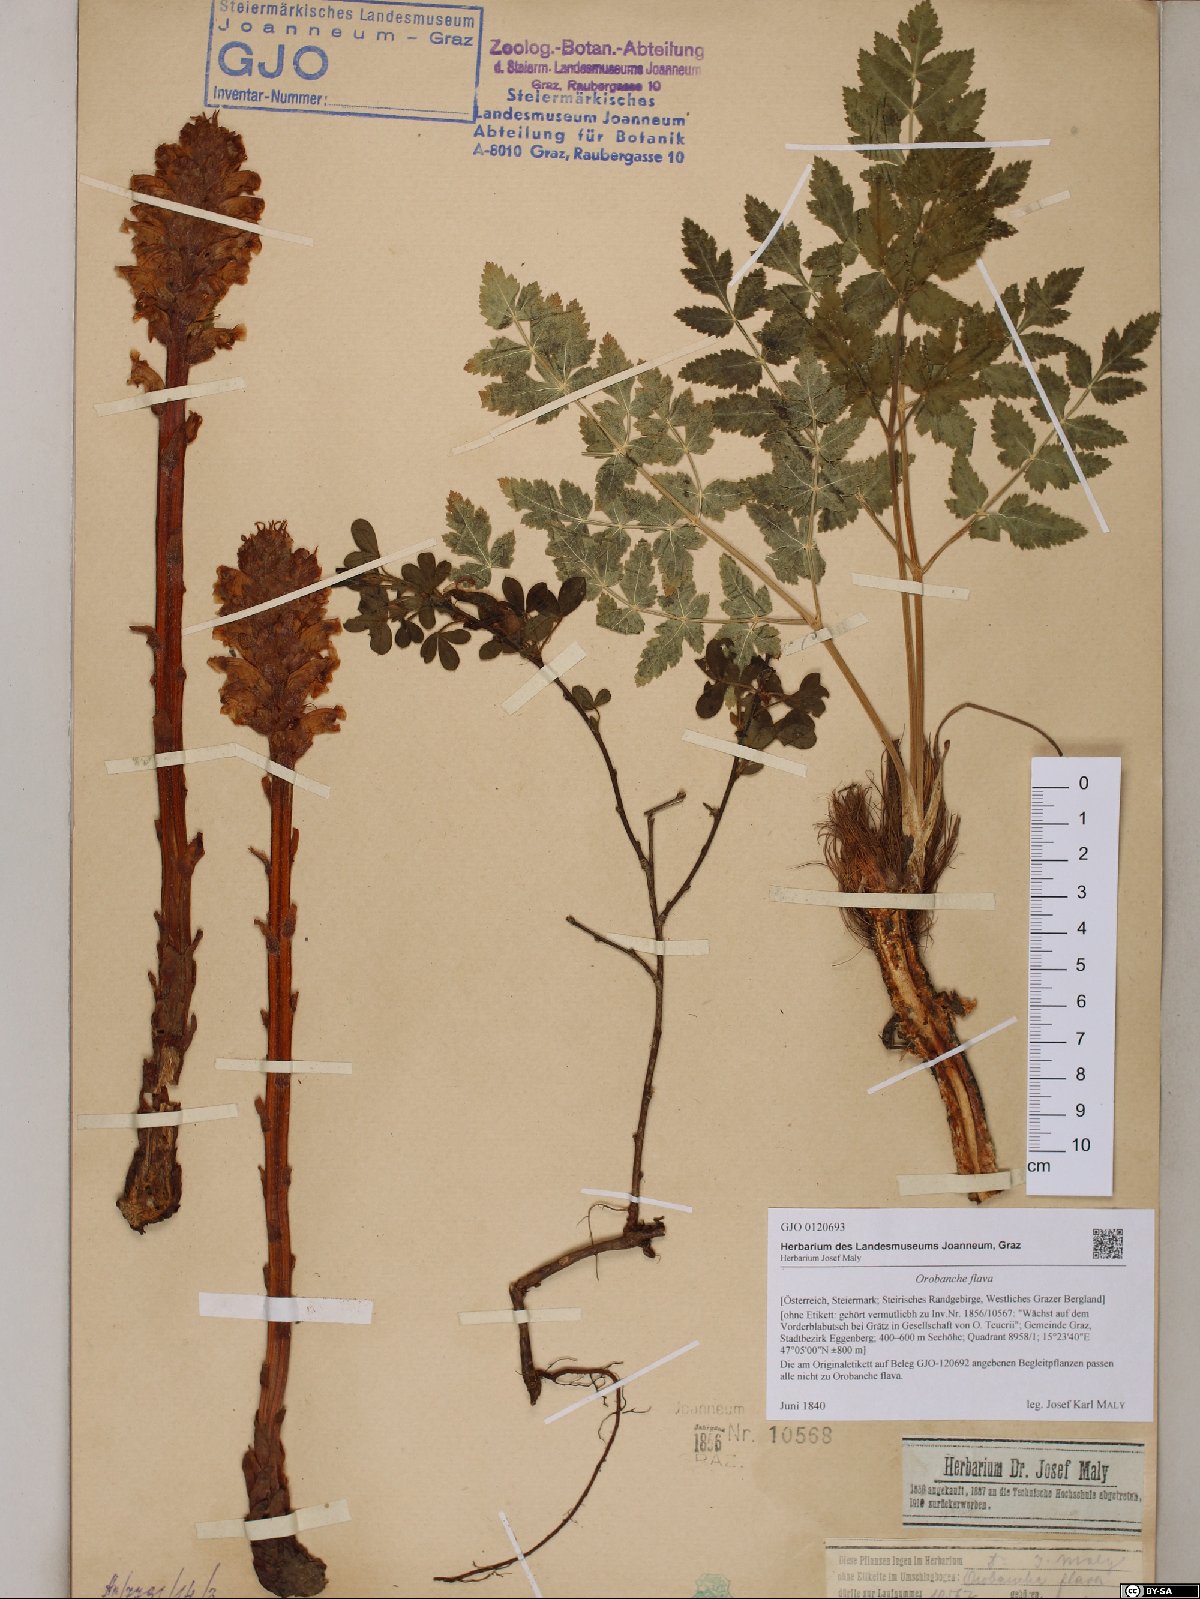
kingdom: Plantae
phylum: Tracheophyta
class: Magnoliopsida
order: Lamiales
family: Orobanchaceae
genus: Orobanche
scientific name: Orobanche flava
